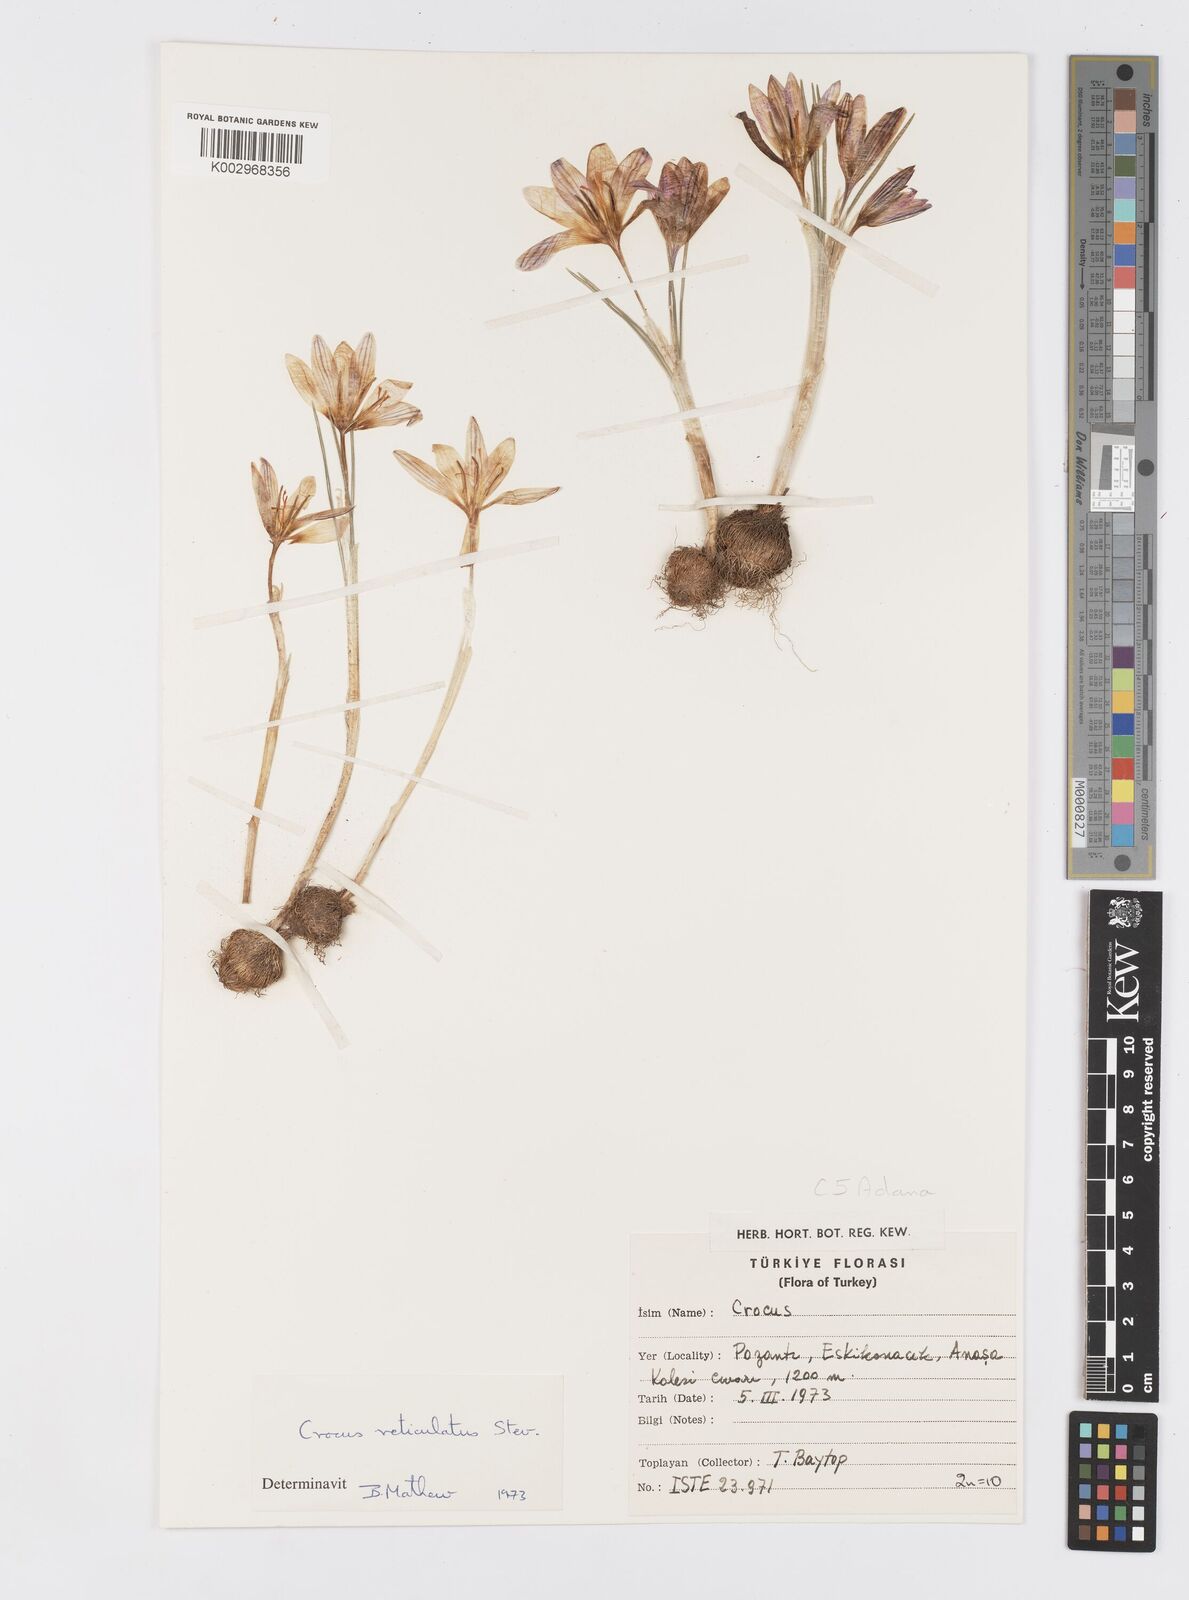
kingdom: Plantae
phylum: Tracheophyta
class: Liliopsida
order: Asparagales
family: Iridaceae
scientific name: Iridaceae
